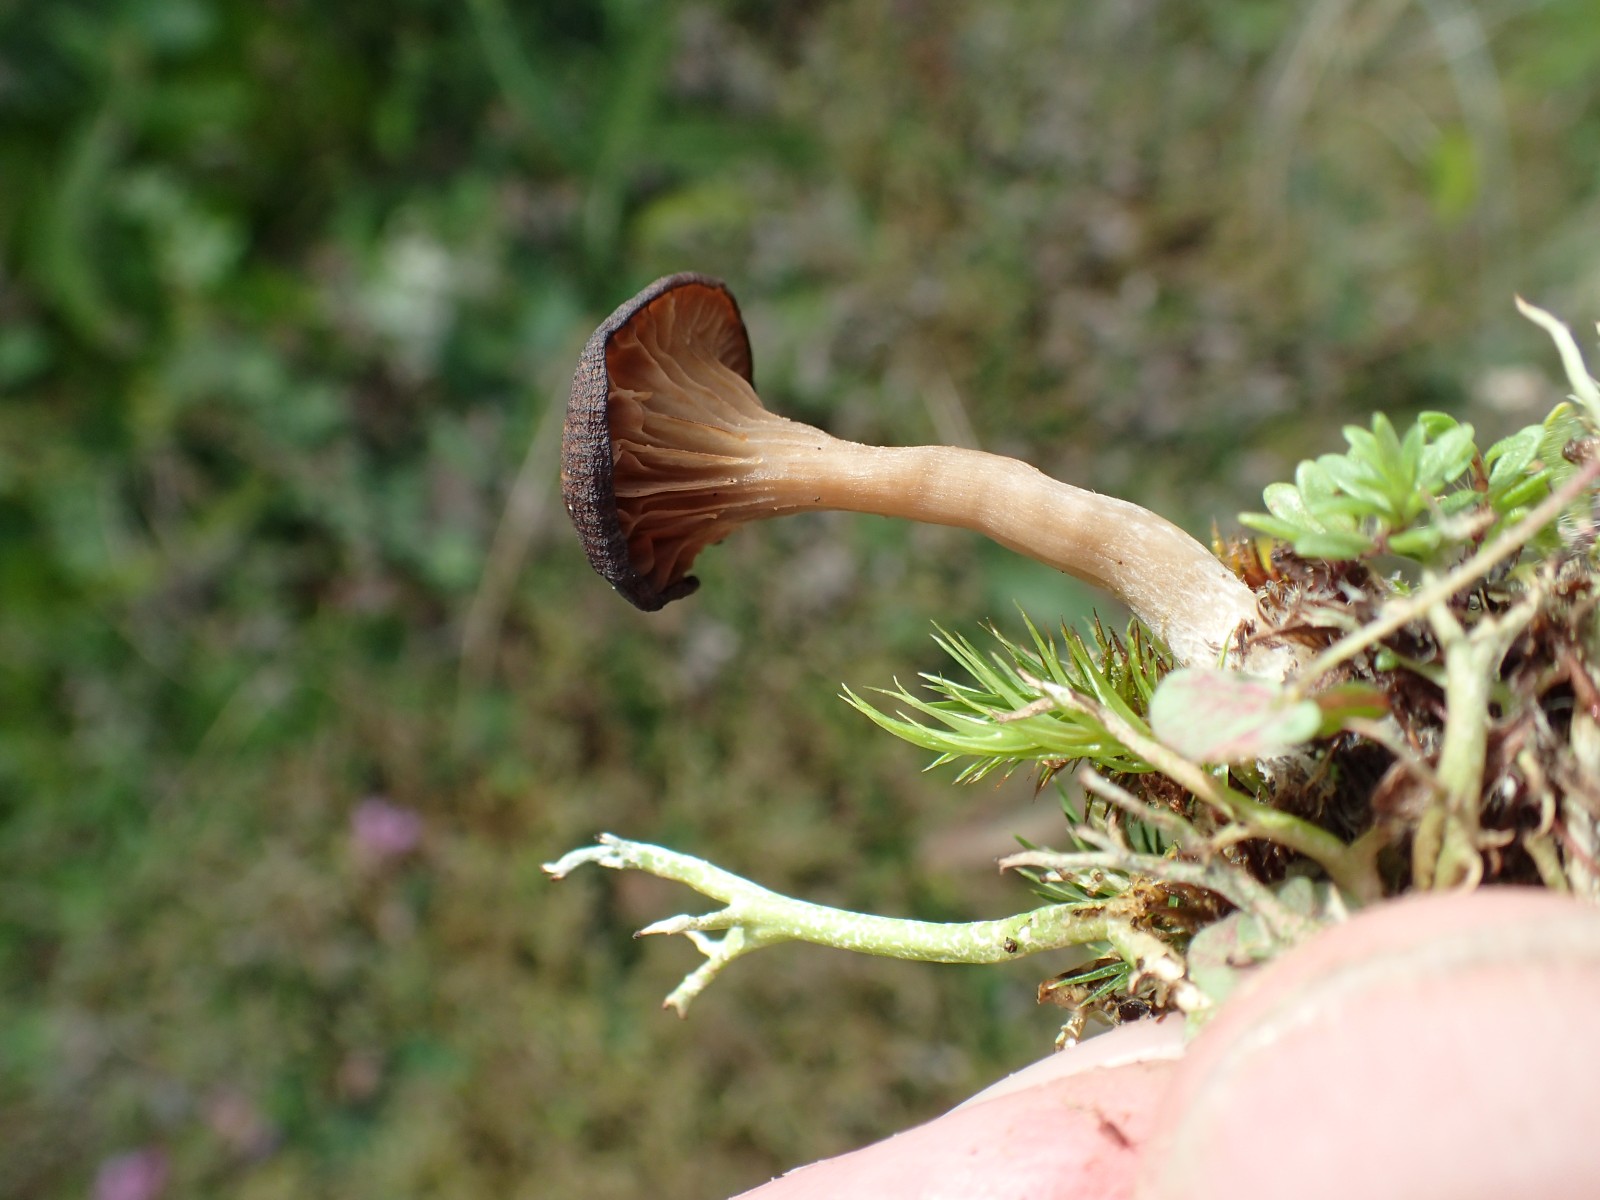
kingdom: Fungi
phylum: Basidiomycota
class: Agaricomycetes
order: Agaricales
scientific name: Agaricales
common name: champignonordenen
